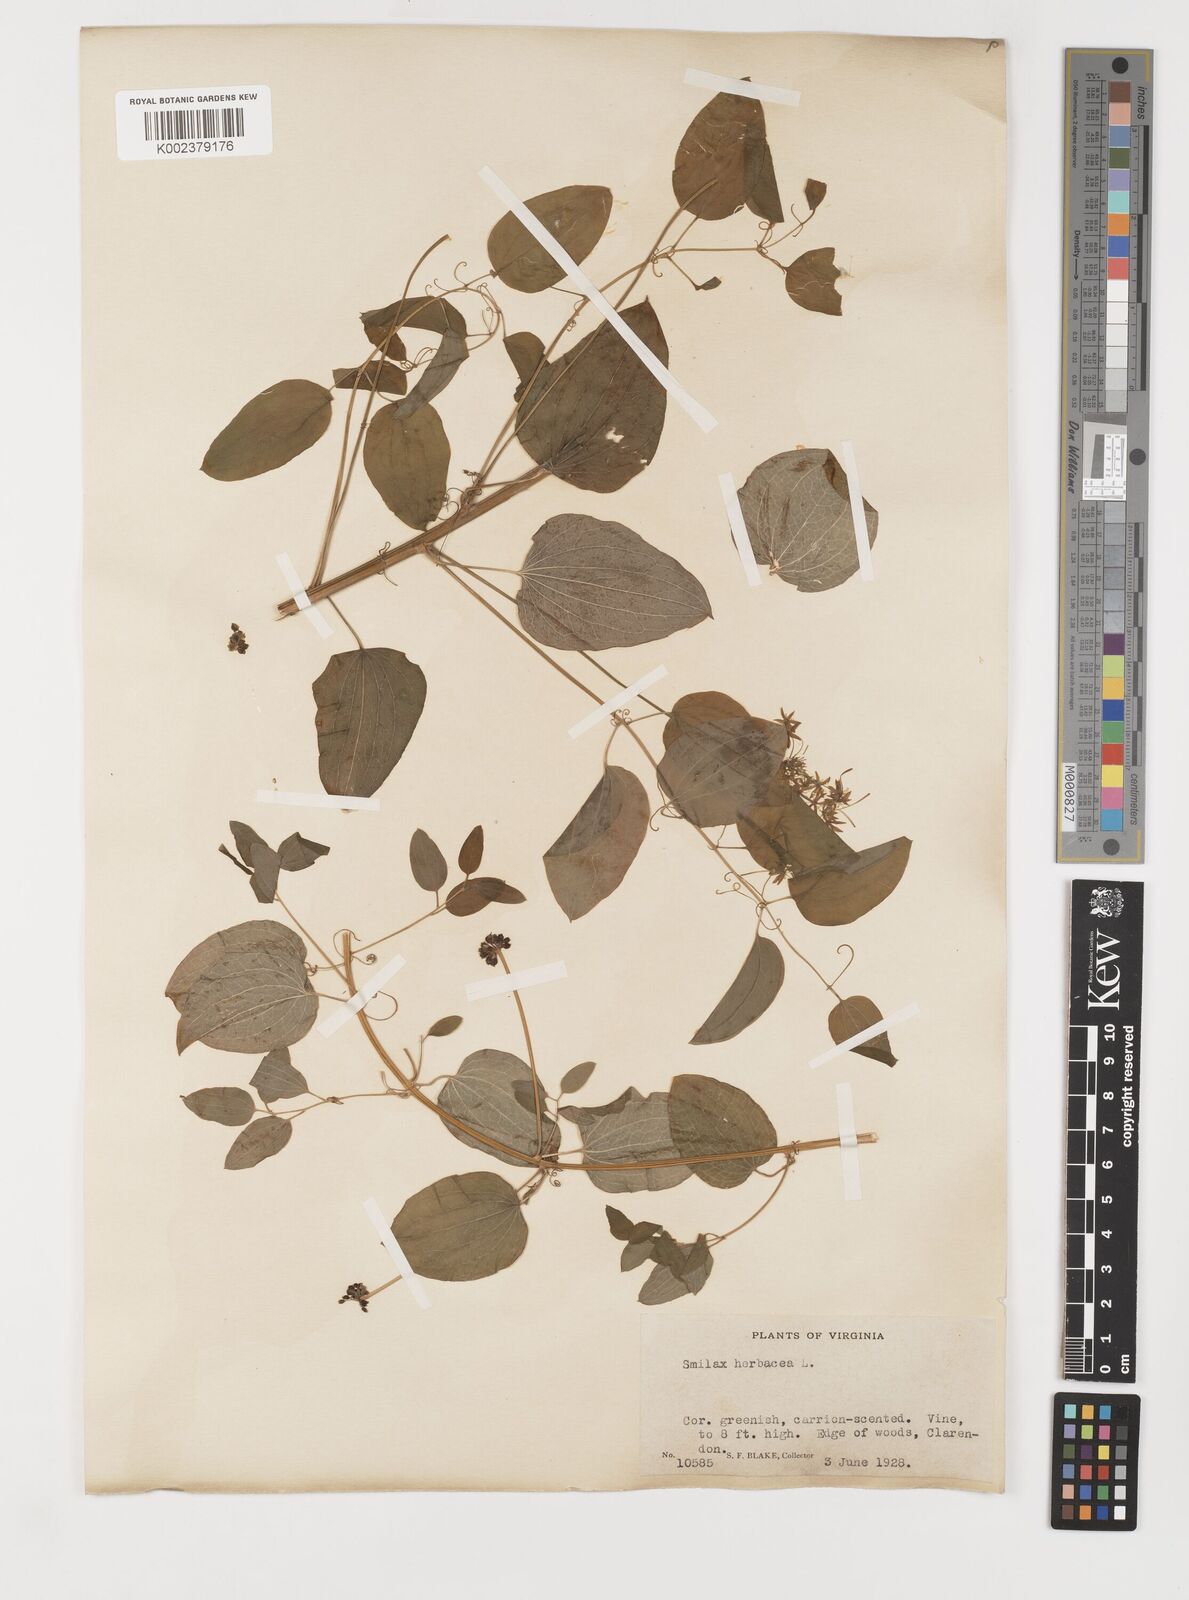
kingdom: Plantae
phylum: Tracheophyta
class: Liliopsida
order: Liliales
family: Smilacaceae
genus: Smilax
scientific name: Smilax herbacea
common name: Jacob's-ladder
